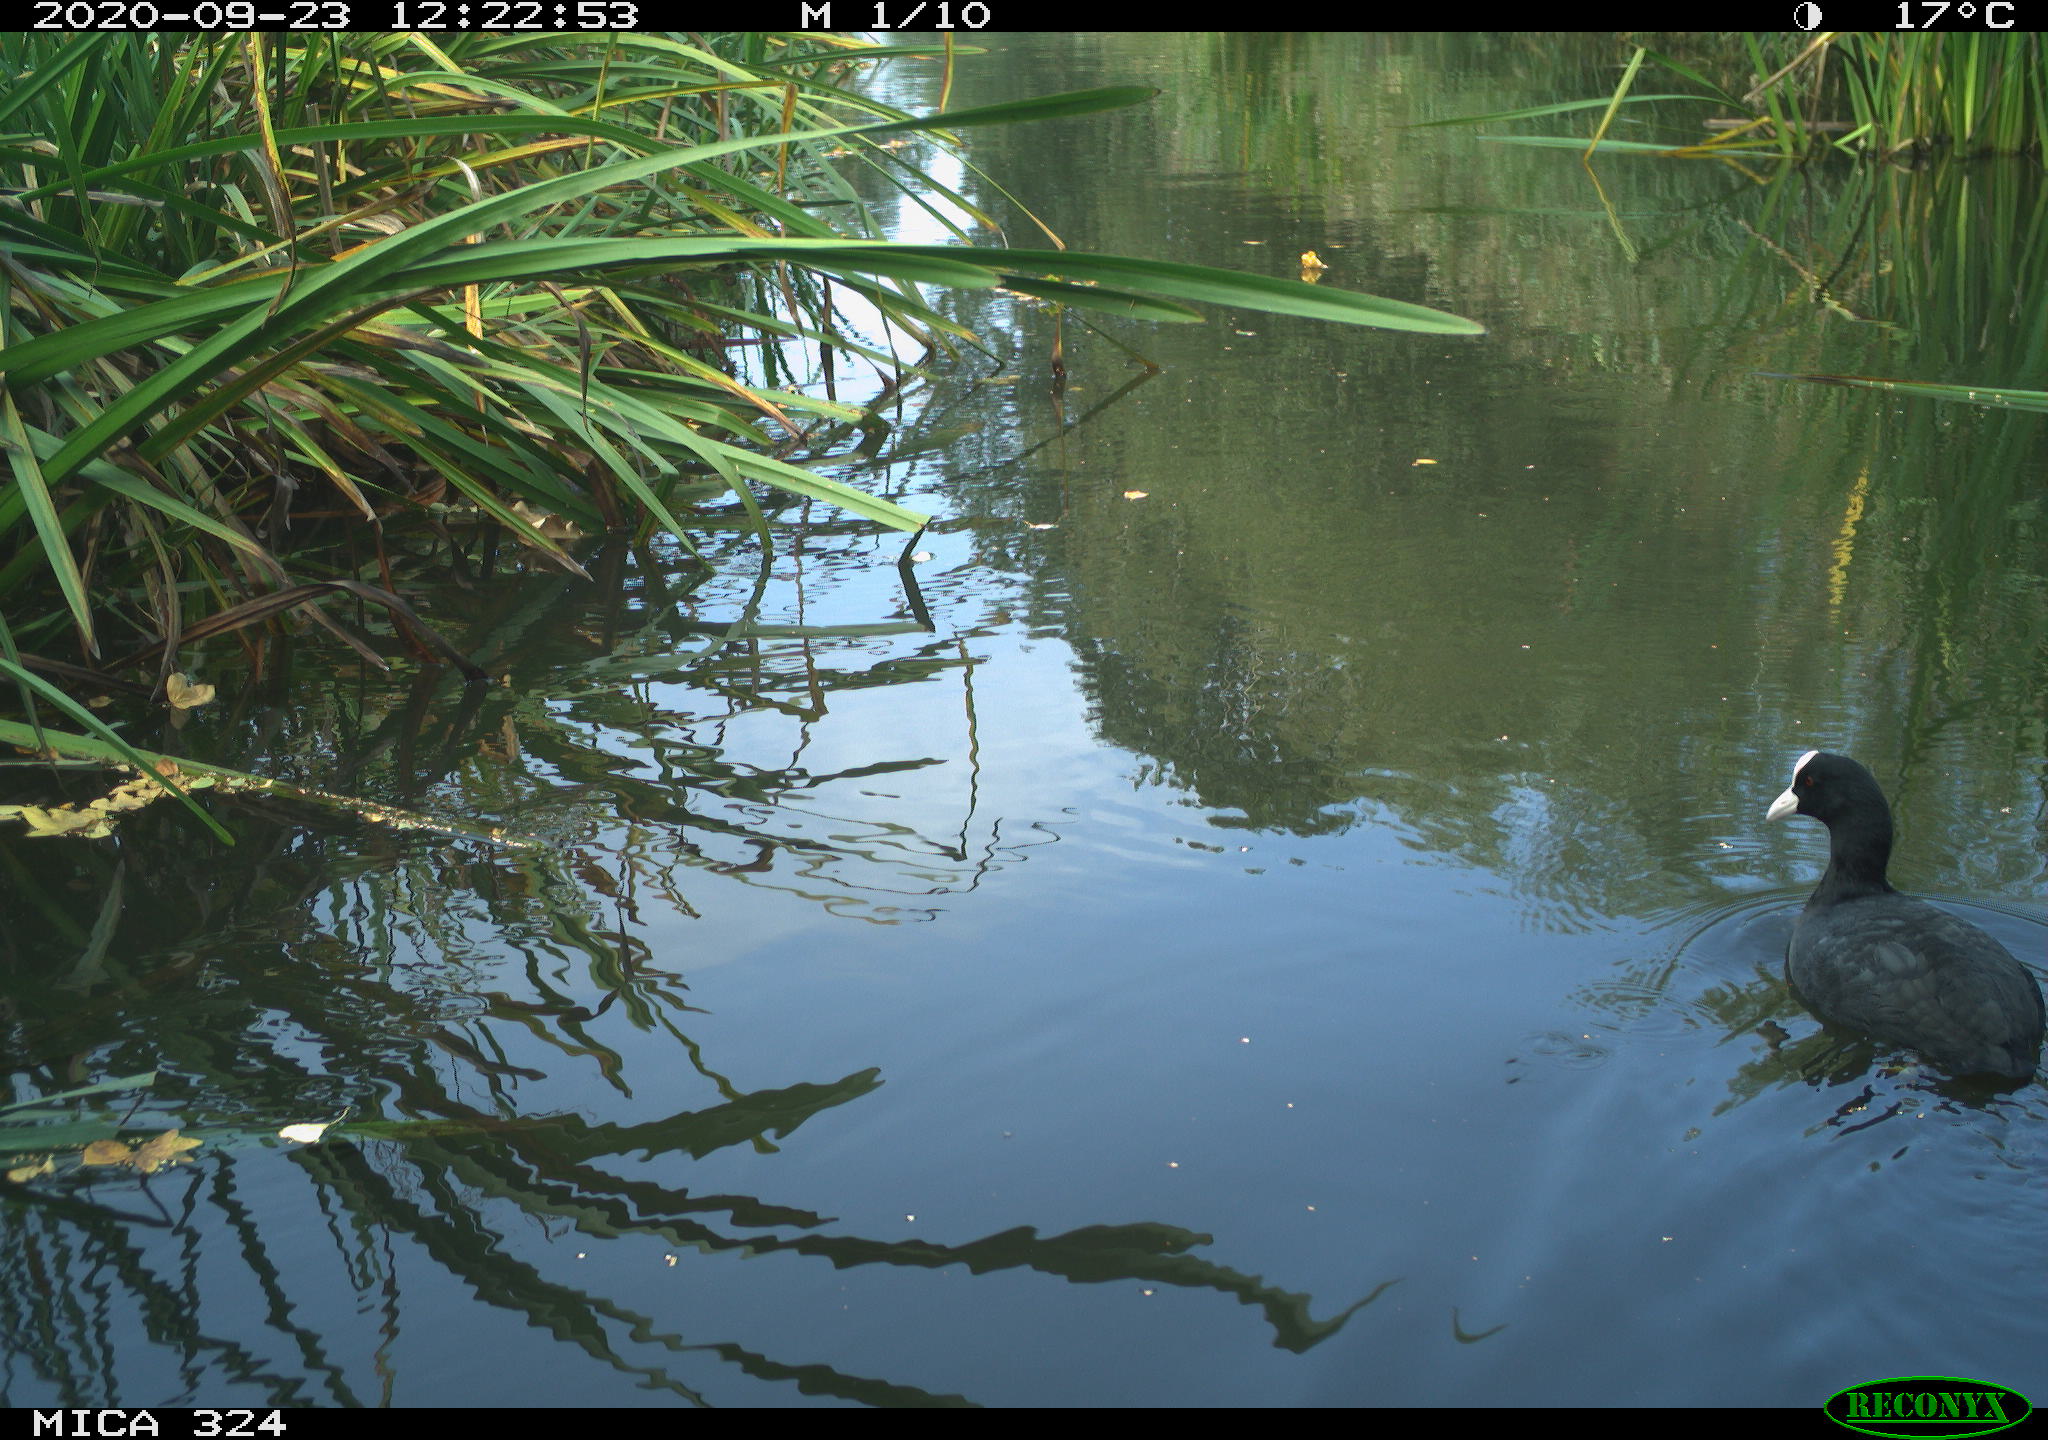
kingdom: Animalia
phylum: Chordata
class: Aves
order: Gruiformes
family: Rallidae
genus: Fulica
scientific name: Fulica atra
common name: Eurasian coot
